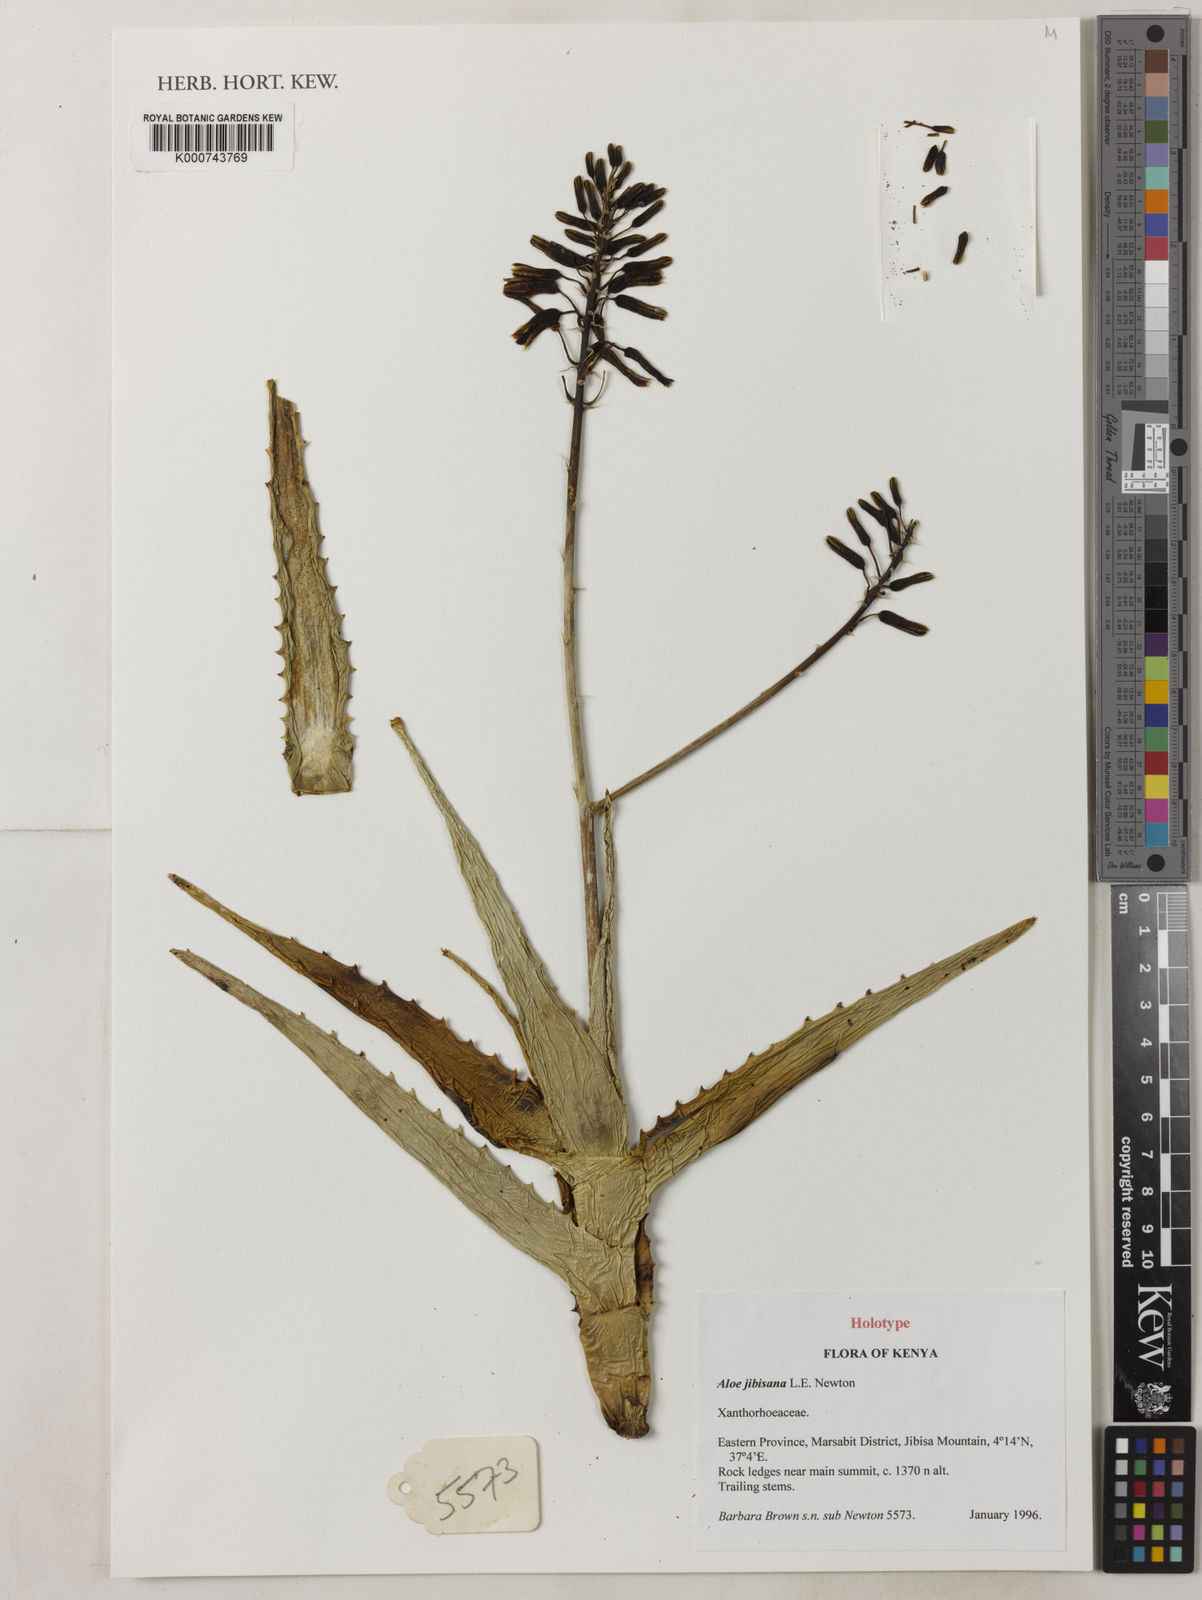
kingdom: Plantae
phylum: Tracheophyta
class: Liliopsida
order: Asparagales
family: Asphodelaceae
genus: Aloe
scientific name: Aloe jibisana
